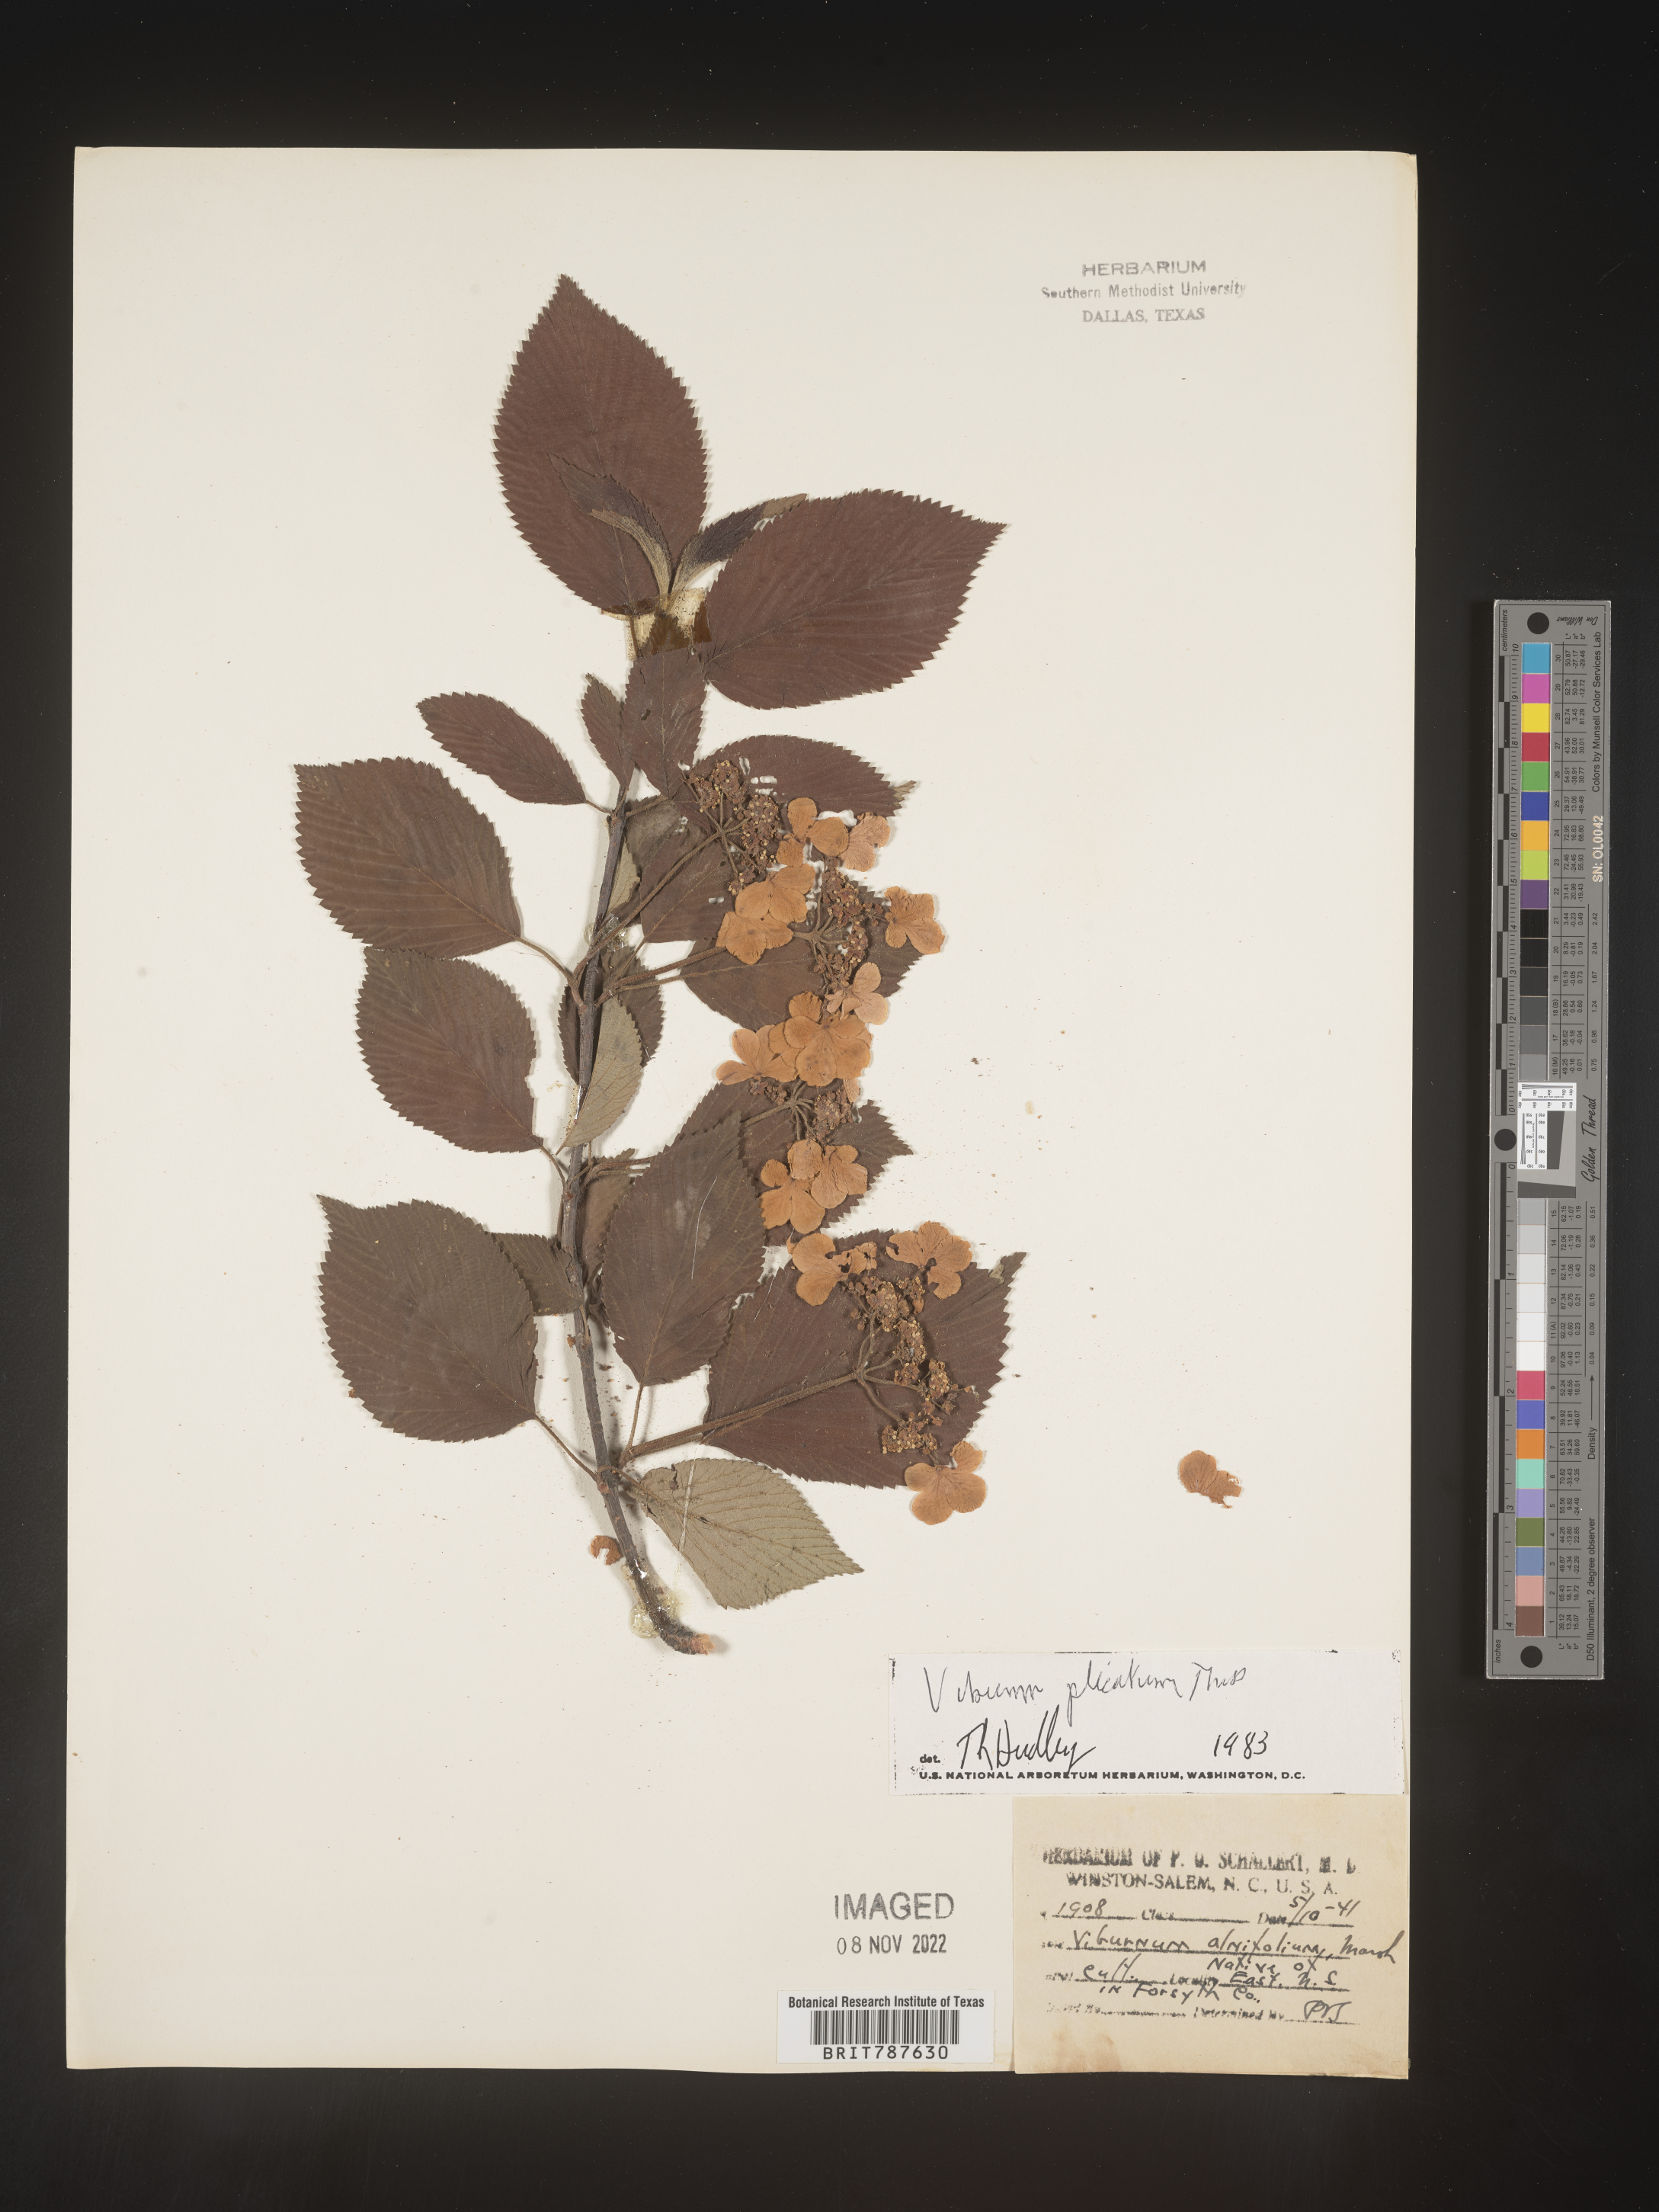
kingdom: Plantae
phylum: Tracheophyta
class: Magnoliopsida
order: Dipsacales
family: Viburnaceae
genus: Viburnum
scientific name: Viburnum
